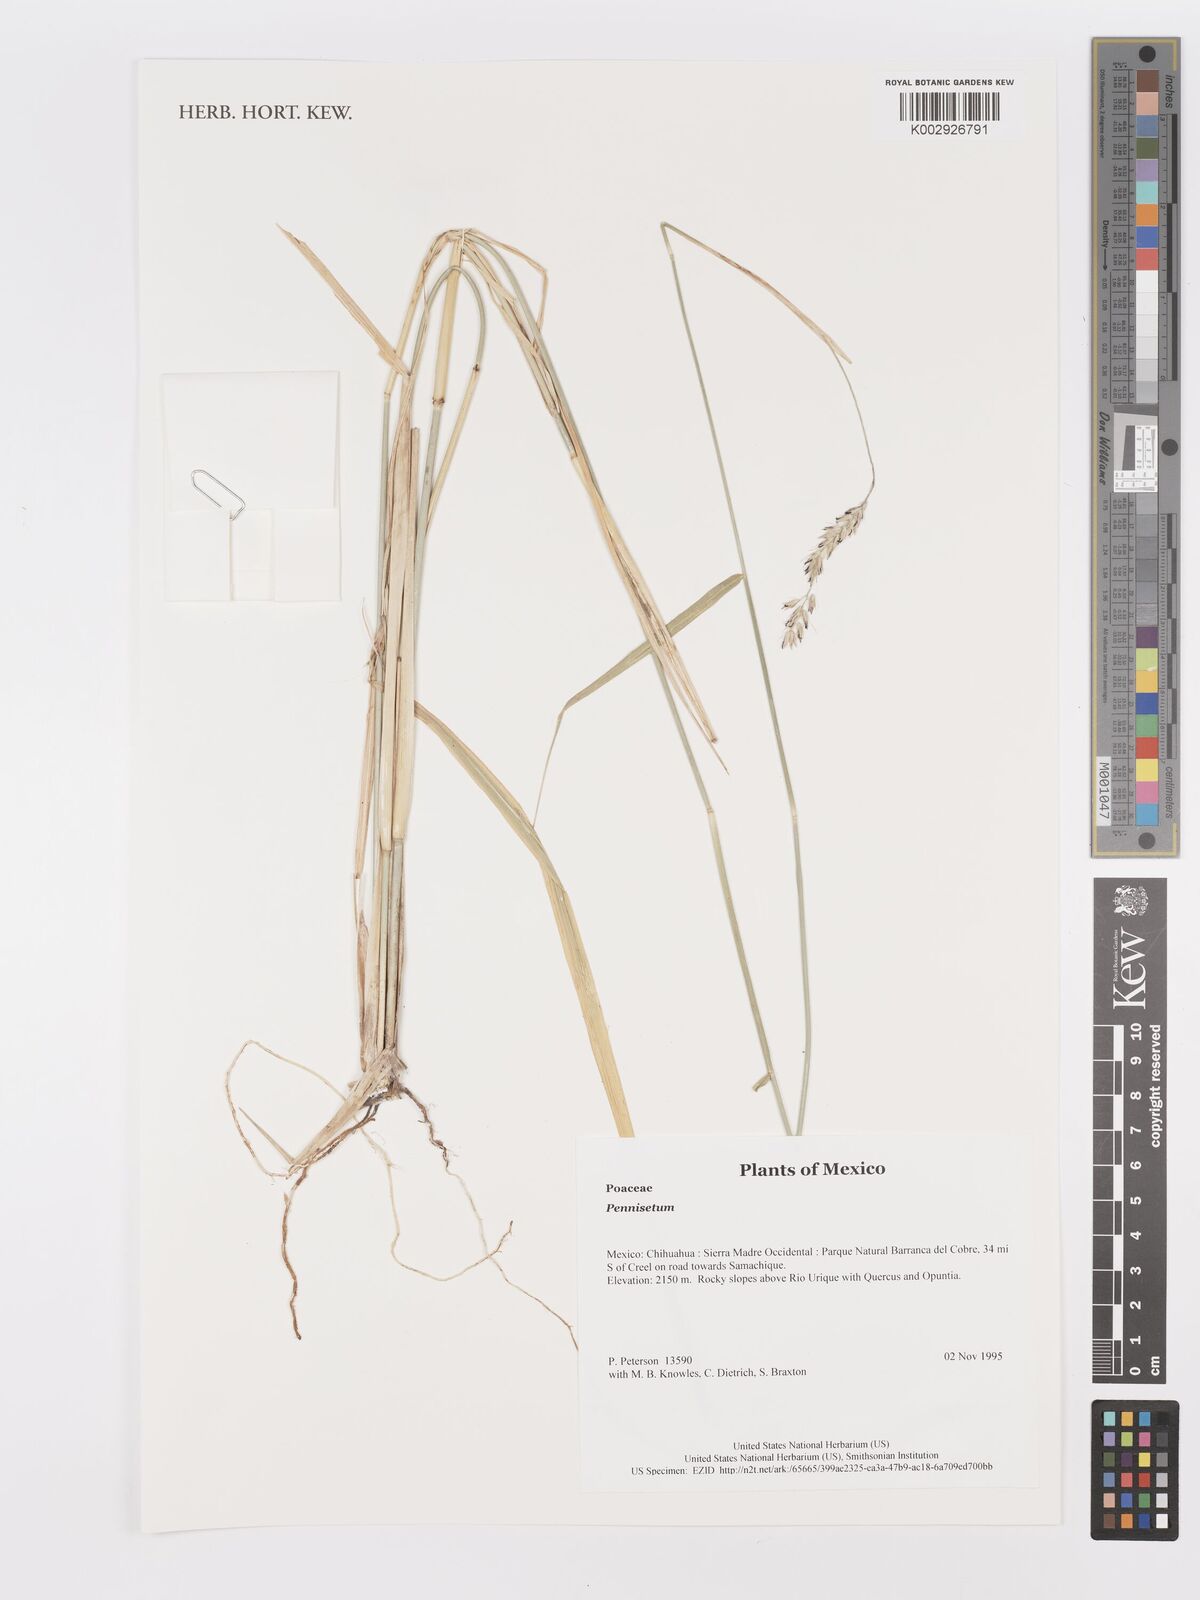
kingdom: Plantae
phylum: Tracheophyta
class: Liliopsida
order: Poales
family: Poaceae
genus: Cenchrus
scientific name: Cenchrus Pennisetum spec
